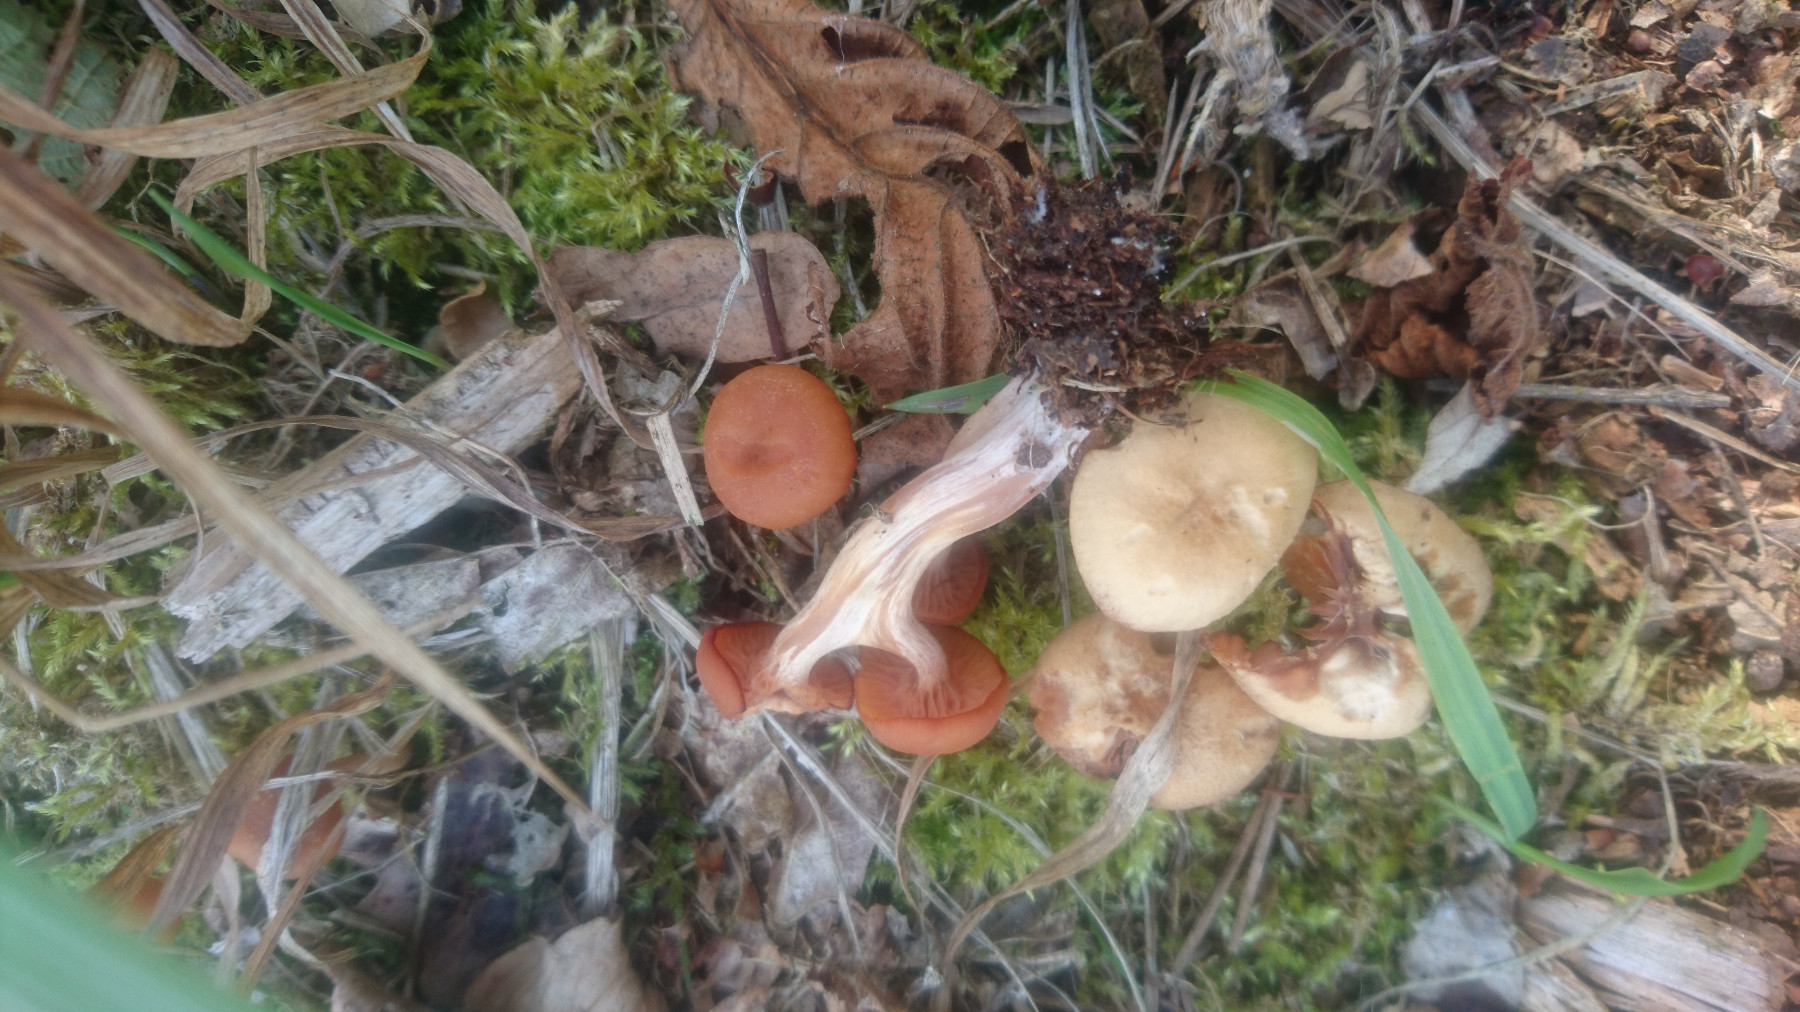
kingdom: Fungi
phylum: Basidiomycota
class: Agaricomycetes
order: Agaricales
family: Hydnangiaceae
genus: Laccaria
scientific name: Laccaria laccata
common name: rød ametysthat
